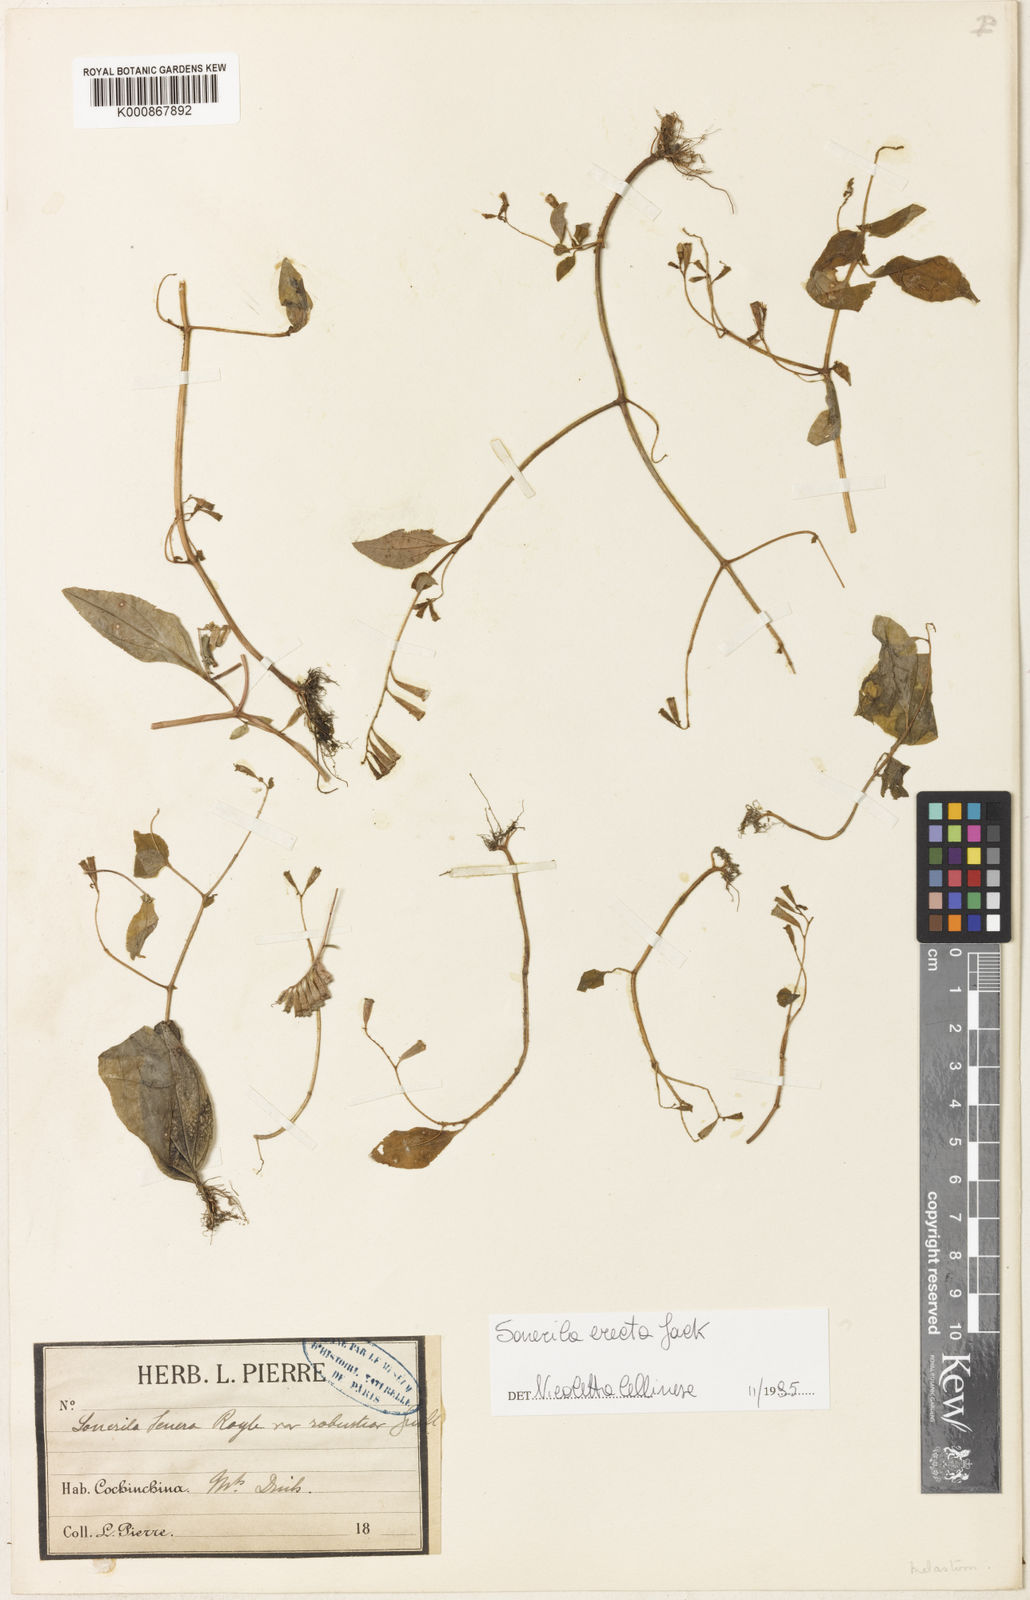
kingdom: Plantae
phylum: Tracheophyta
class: Magnoliopsida
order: Myrtales
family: Melastomataceae
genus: Sonerila
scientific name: Sonerila erecta
